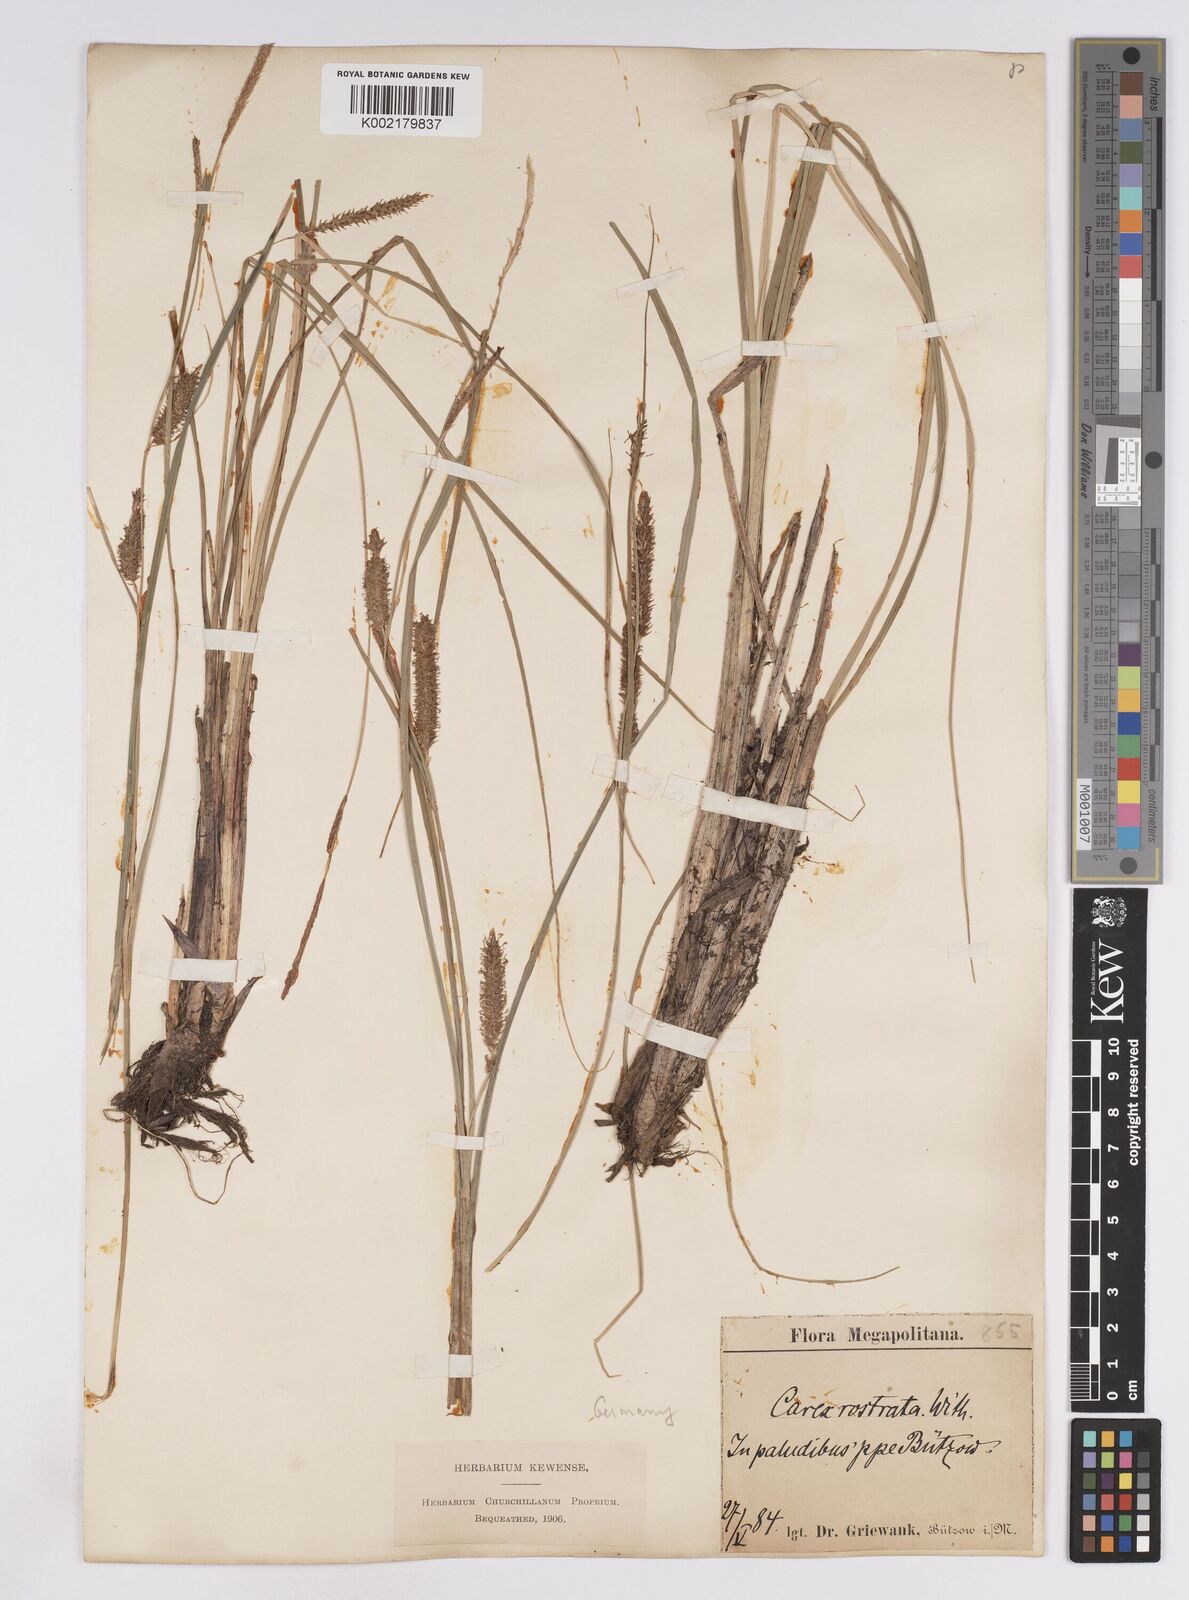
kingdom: Plantae
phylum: Tracheophyta
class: Liliopsida
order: Poales
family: Cyperaceae
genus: Carex
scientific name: Carex rostrata
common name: Bottle sedge
